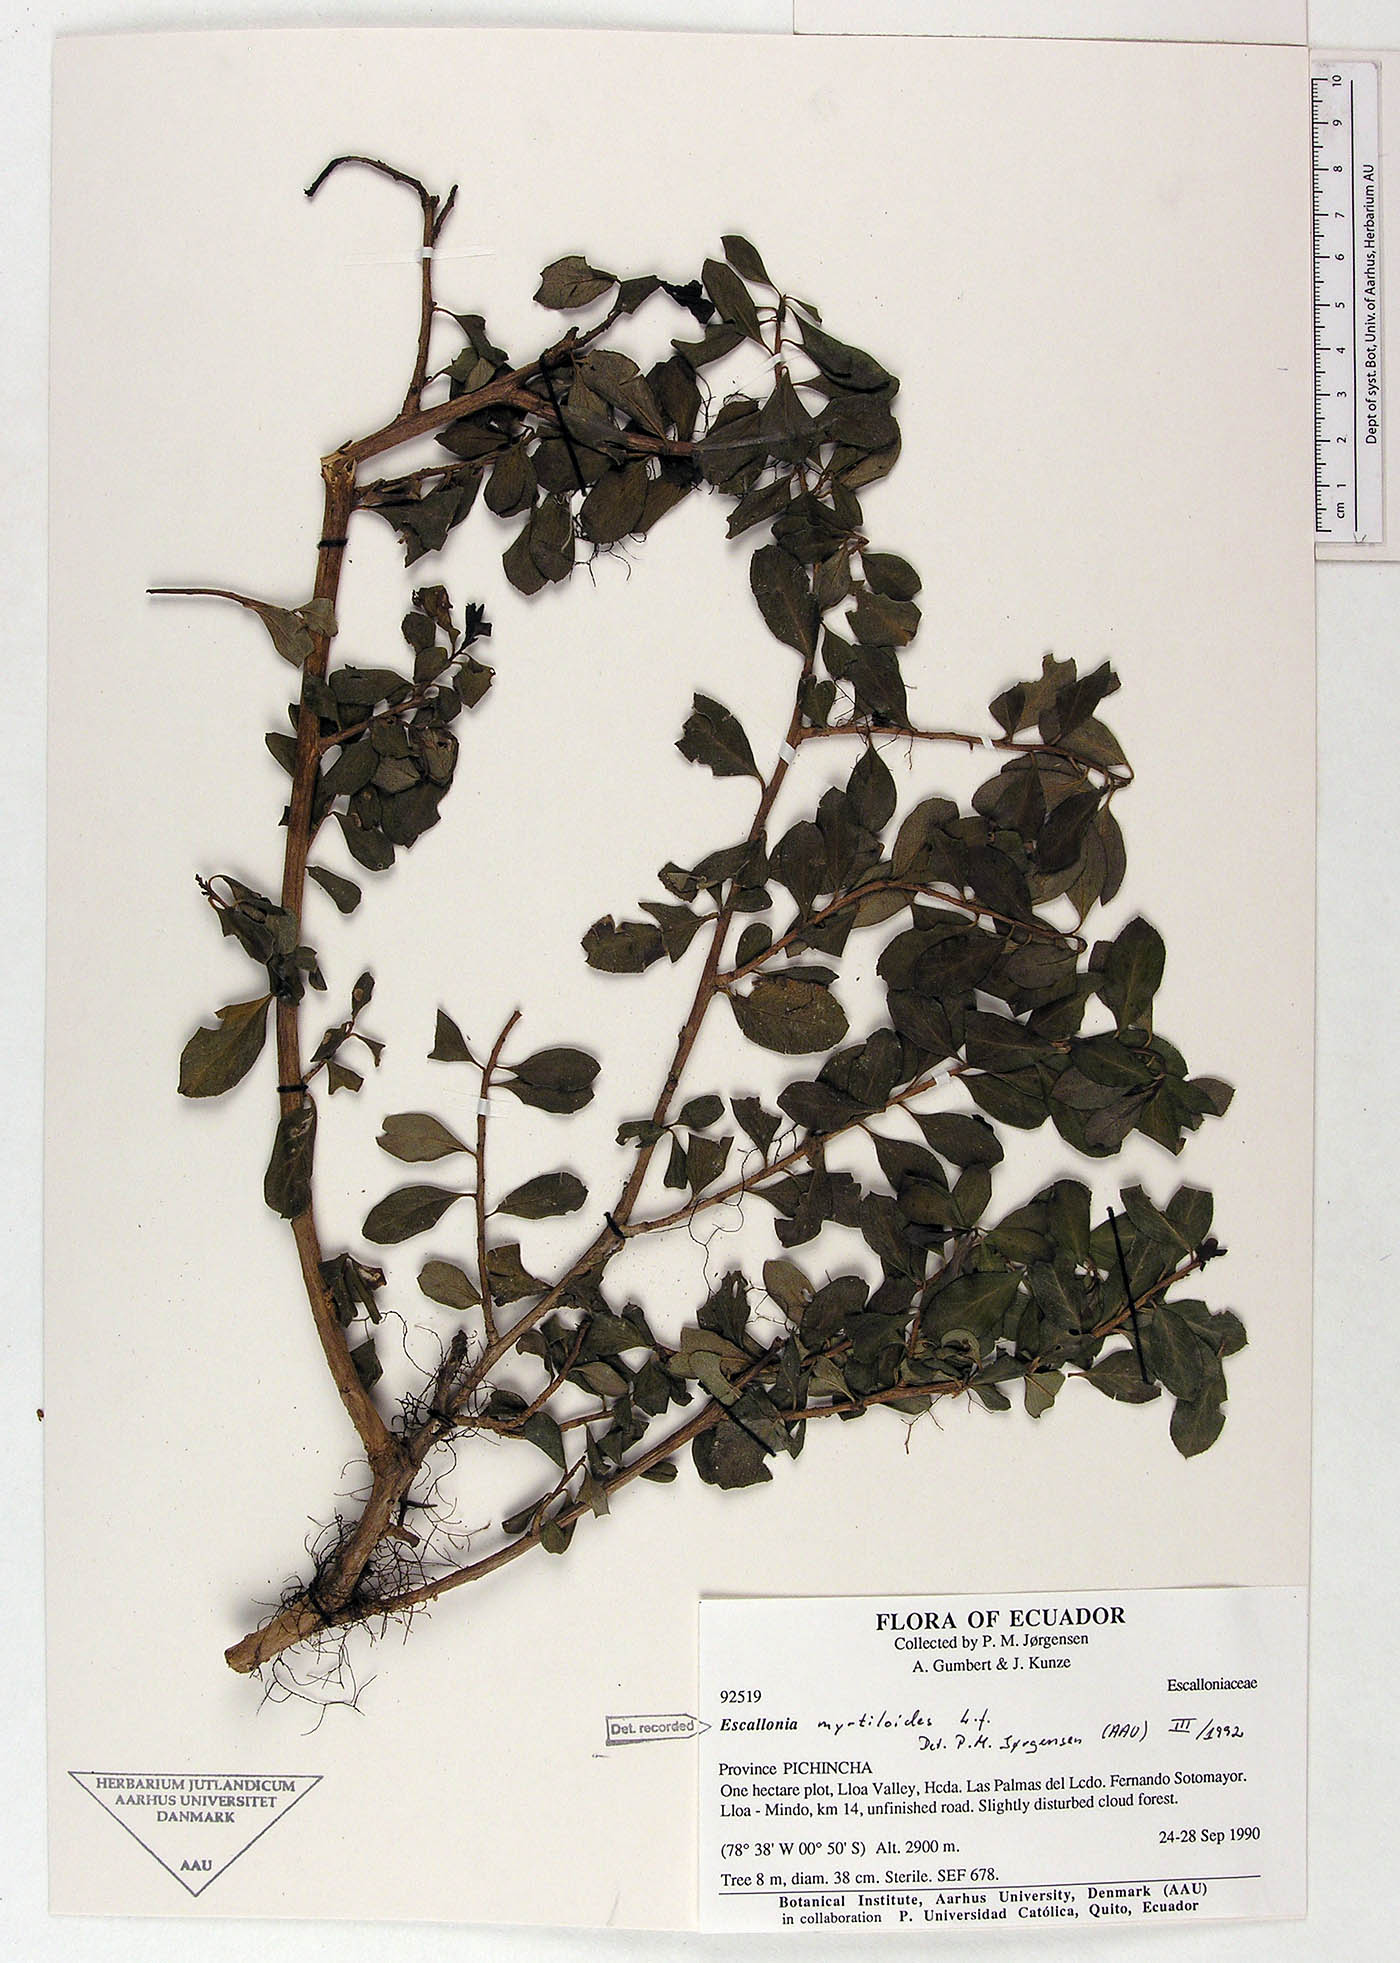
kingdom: Plantae
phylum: Tracheophyta
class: Magnoliopsida
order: Escalloniales
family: Escalloniaceae
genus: Escallonia
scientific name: Escallonia myrtilloides
